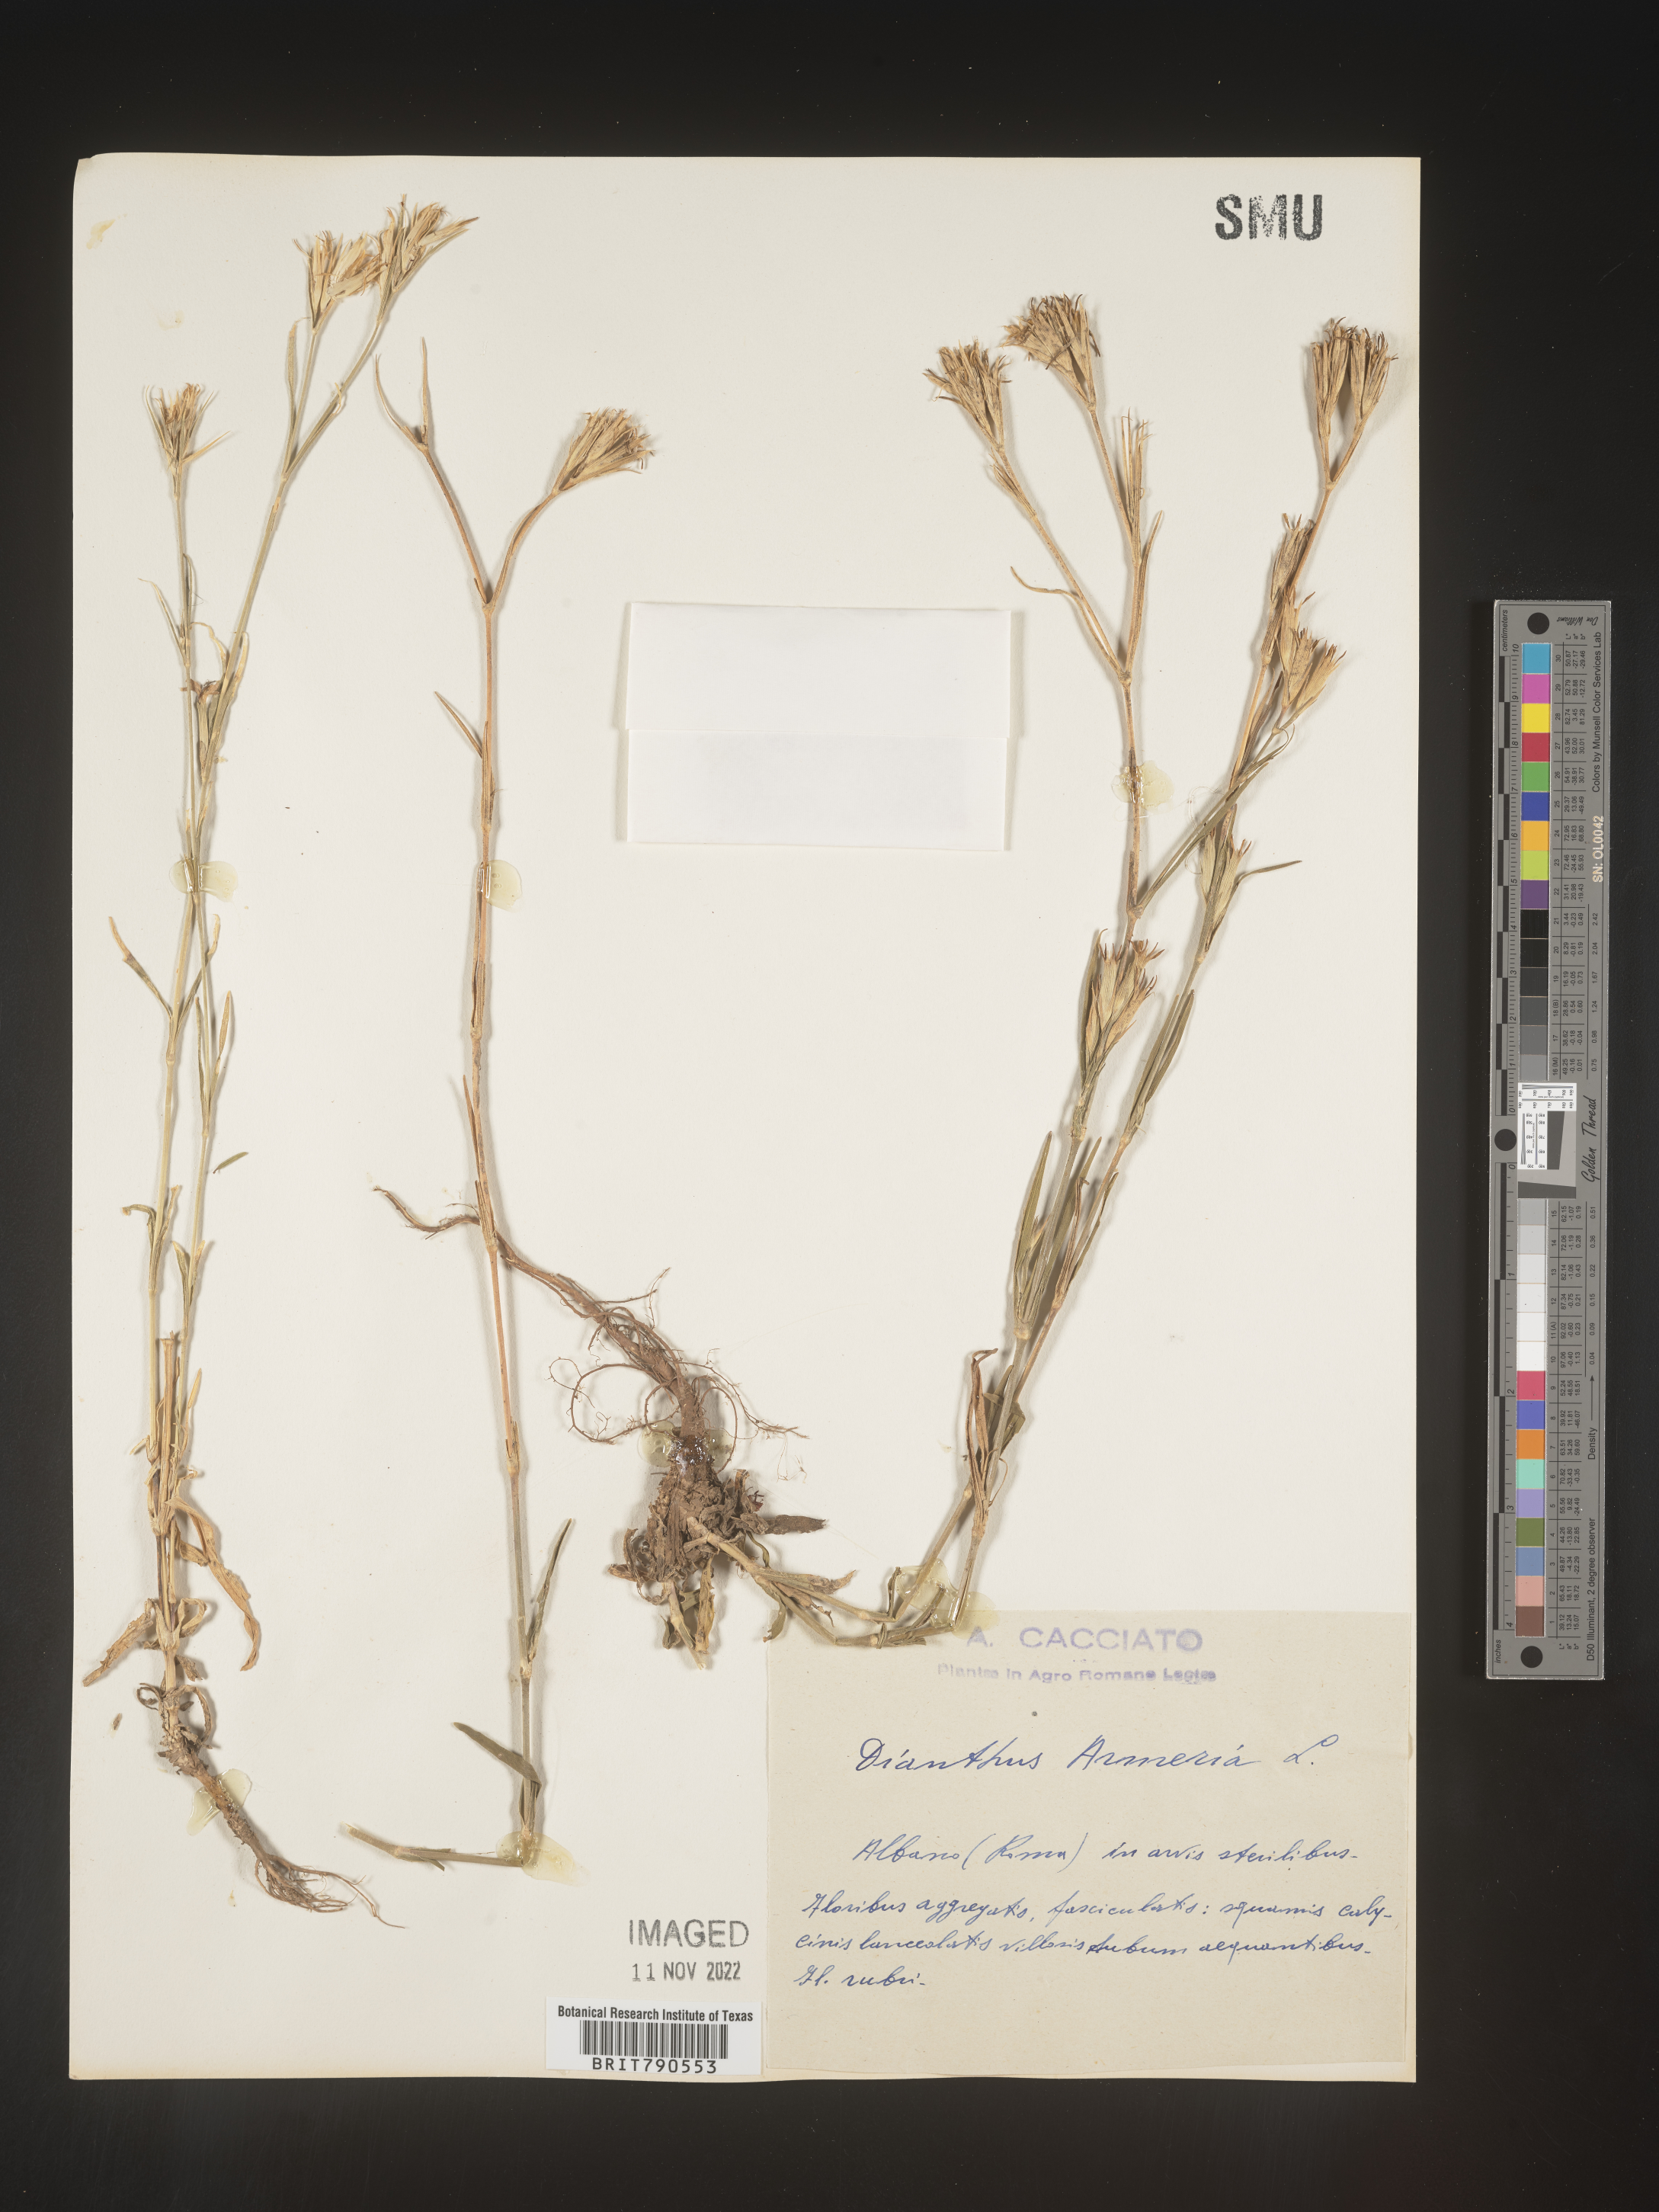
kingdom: Plantae
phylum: Tracheophyta
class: Magnoliopsida
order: Caryophyllales
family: Caryophyllaceae
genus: Dianthus
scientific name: Dianthus
